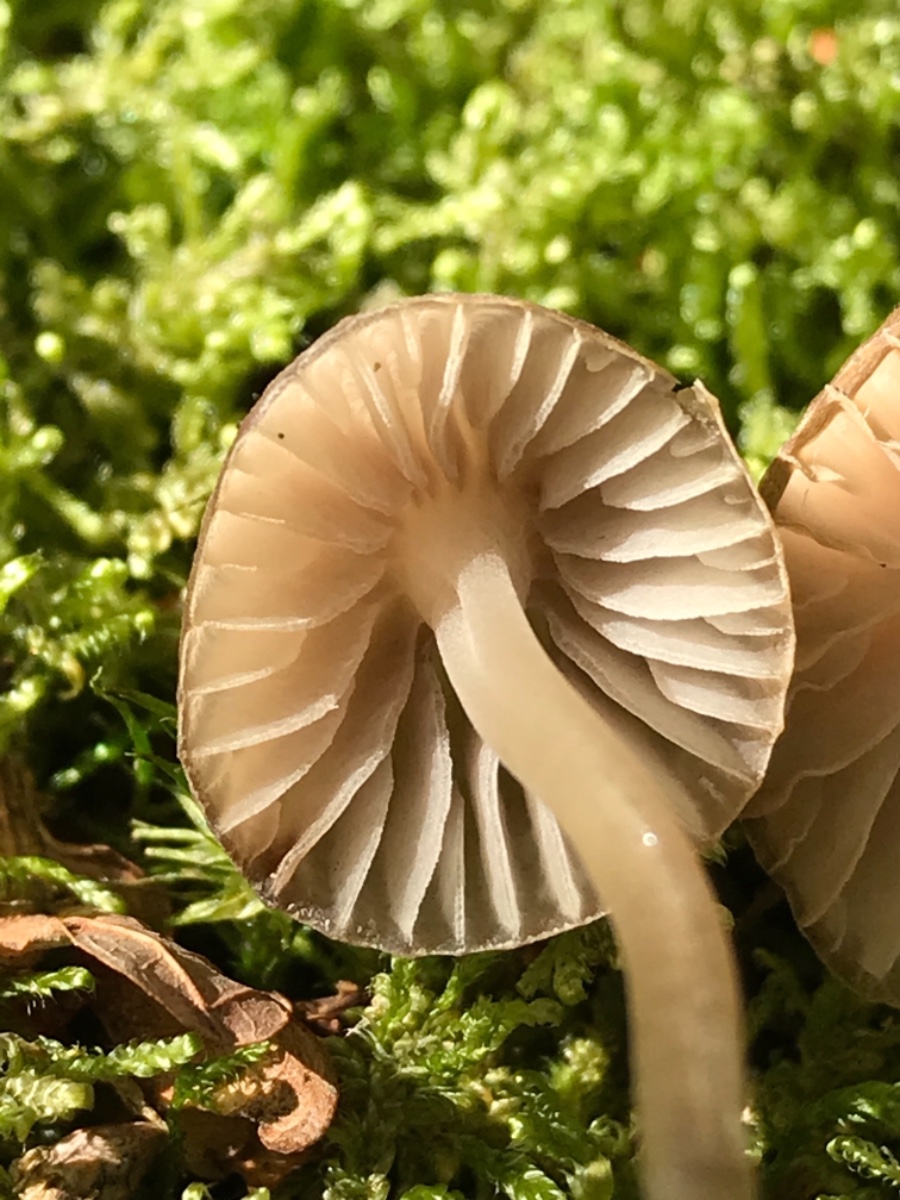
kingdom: Fungi
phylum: Basidiomycota
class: Agaricomycetes
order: Agaricales
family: Mycenaceae
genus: Mycena
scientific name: Mycena
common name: huesvamp
